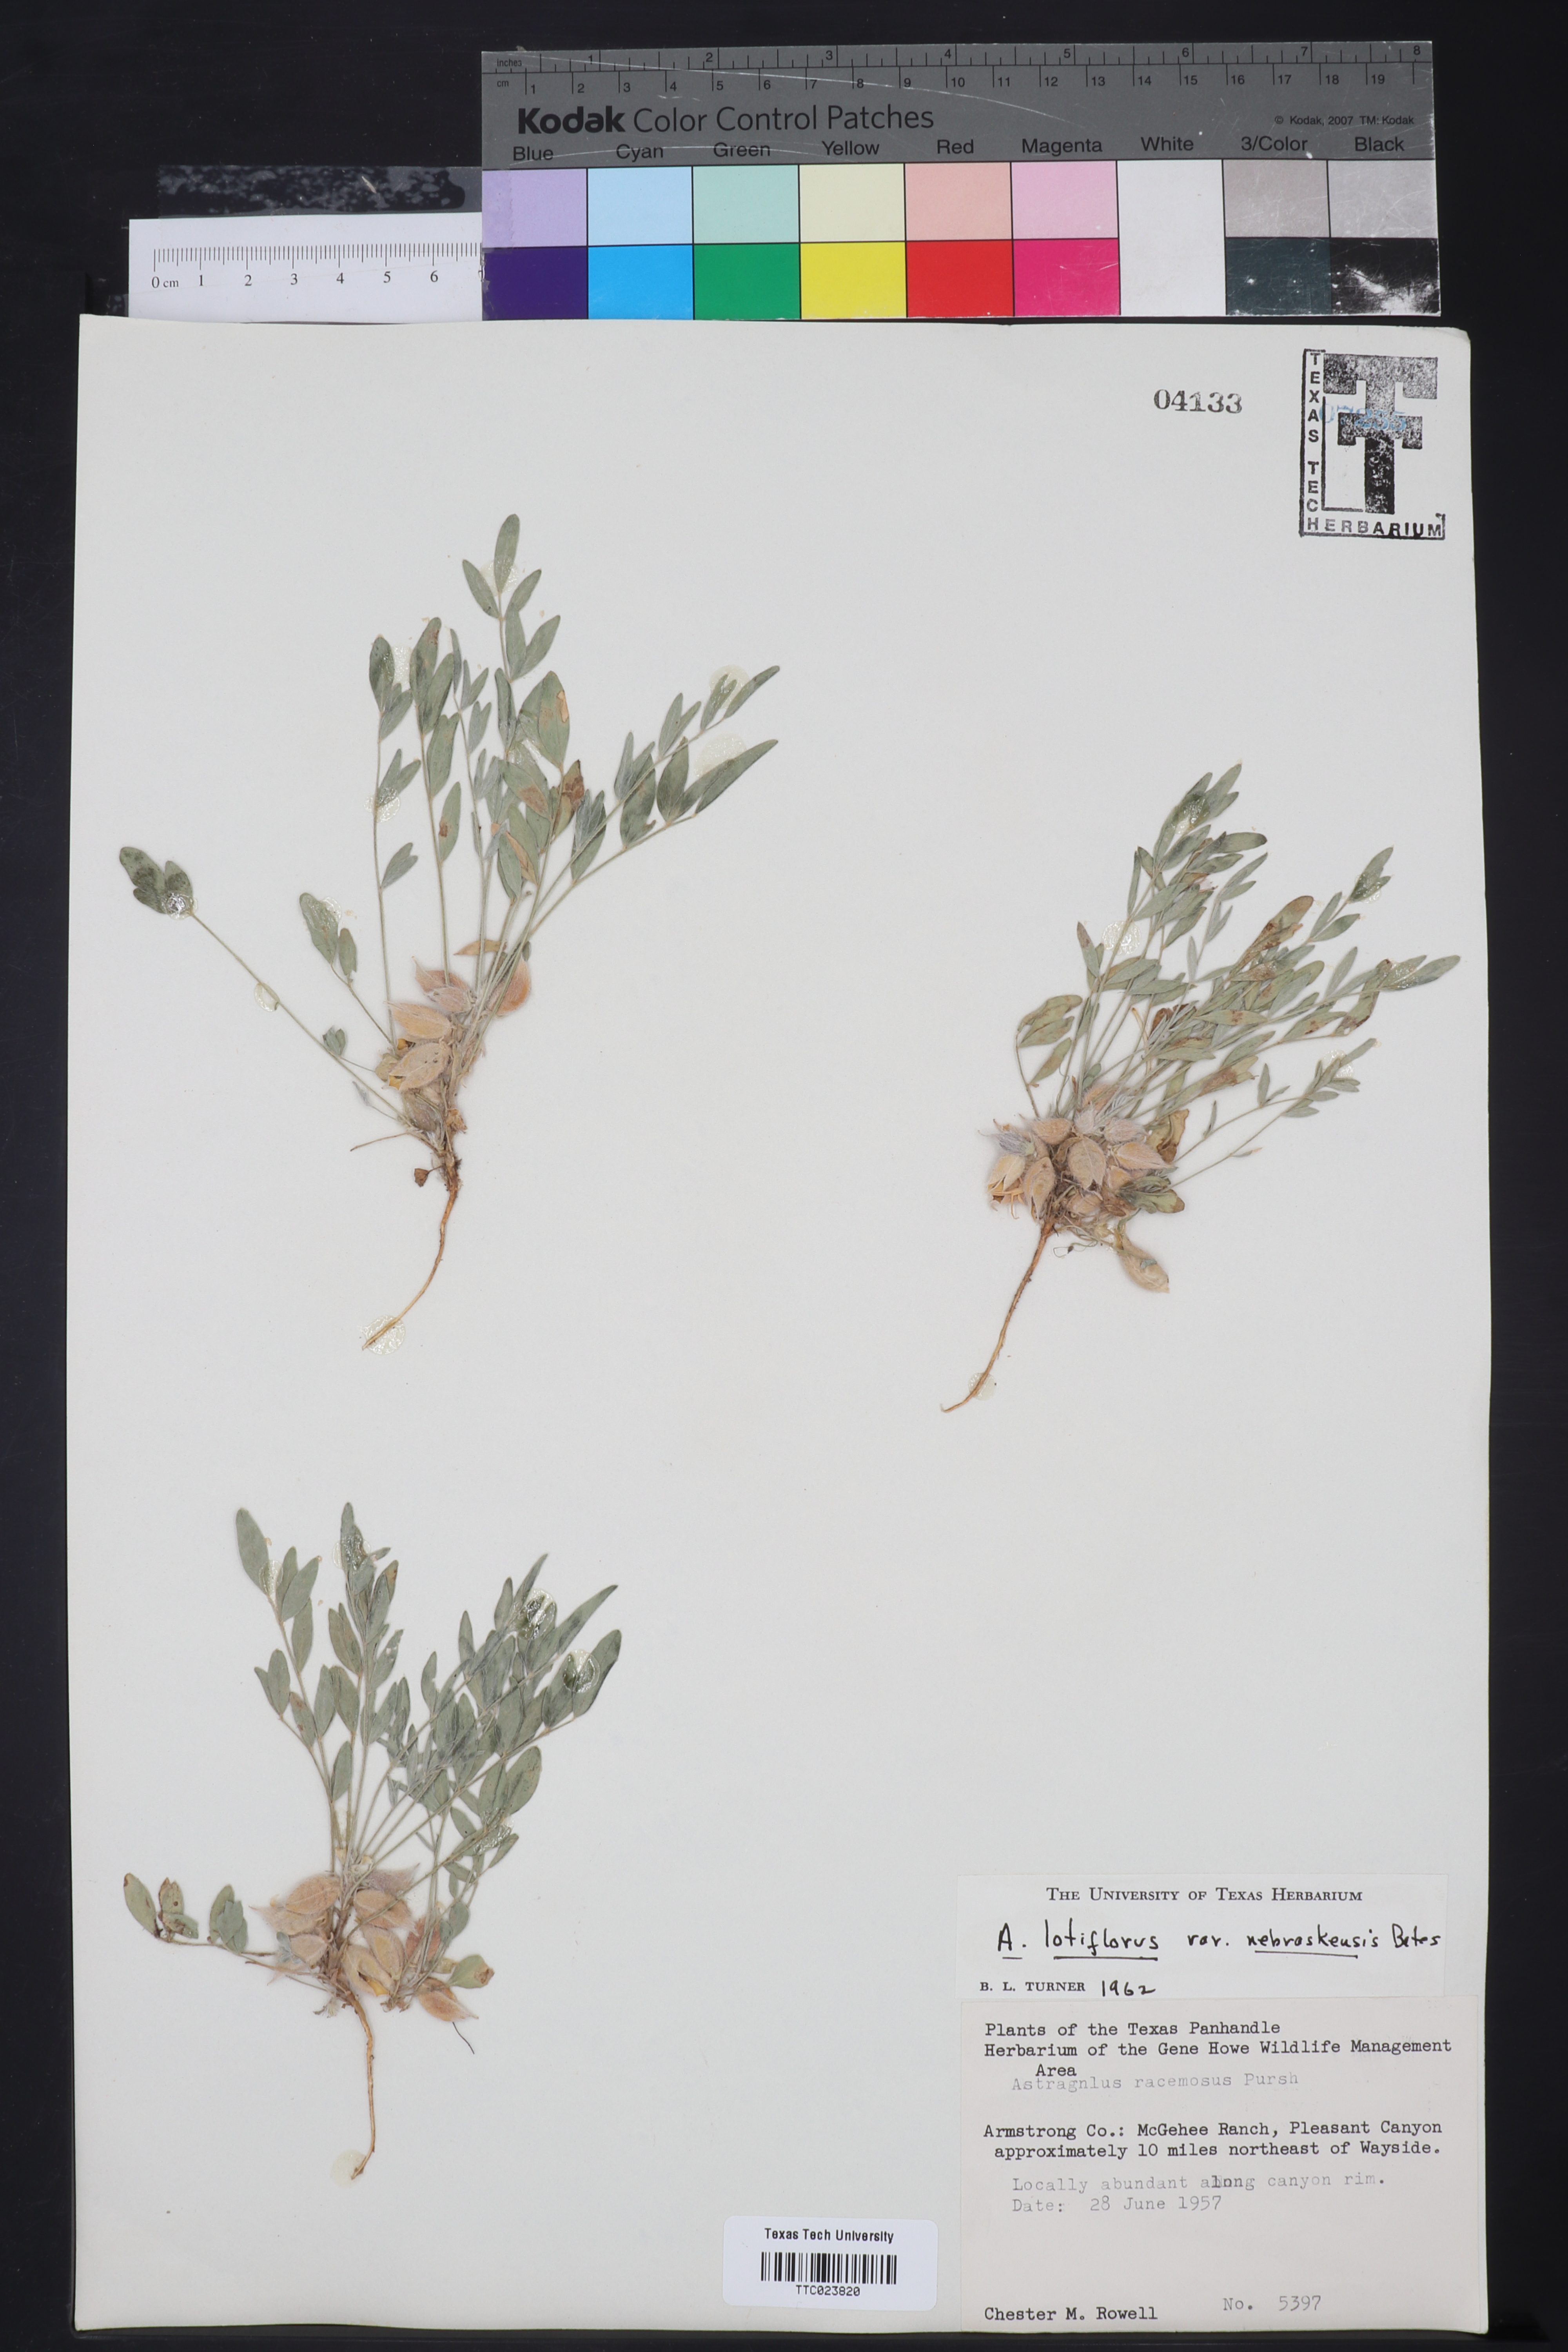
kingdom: Plantae
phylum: Tracheophyta
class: Magnoliopsida
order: Fabales
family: Fabaceae
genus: Astragalus
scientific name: Astragalus racemosus
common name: Alkali milk-vetch
